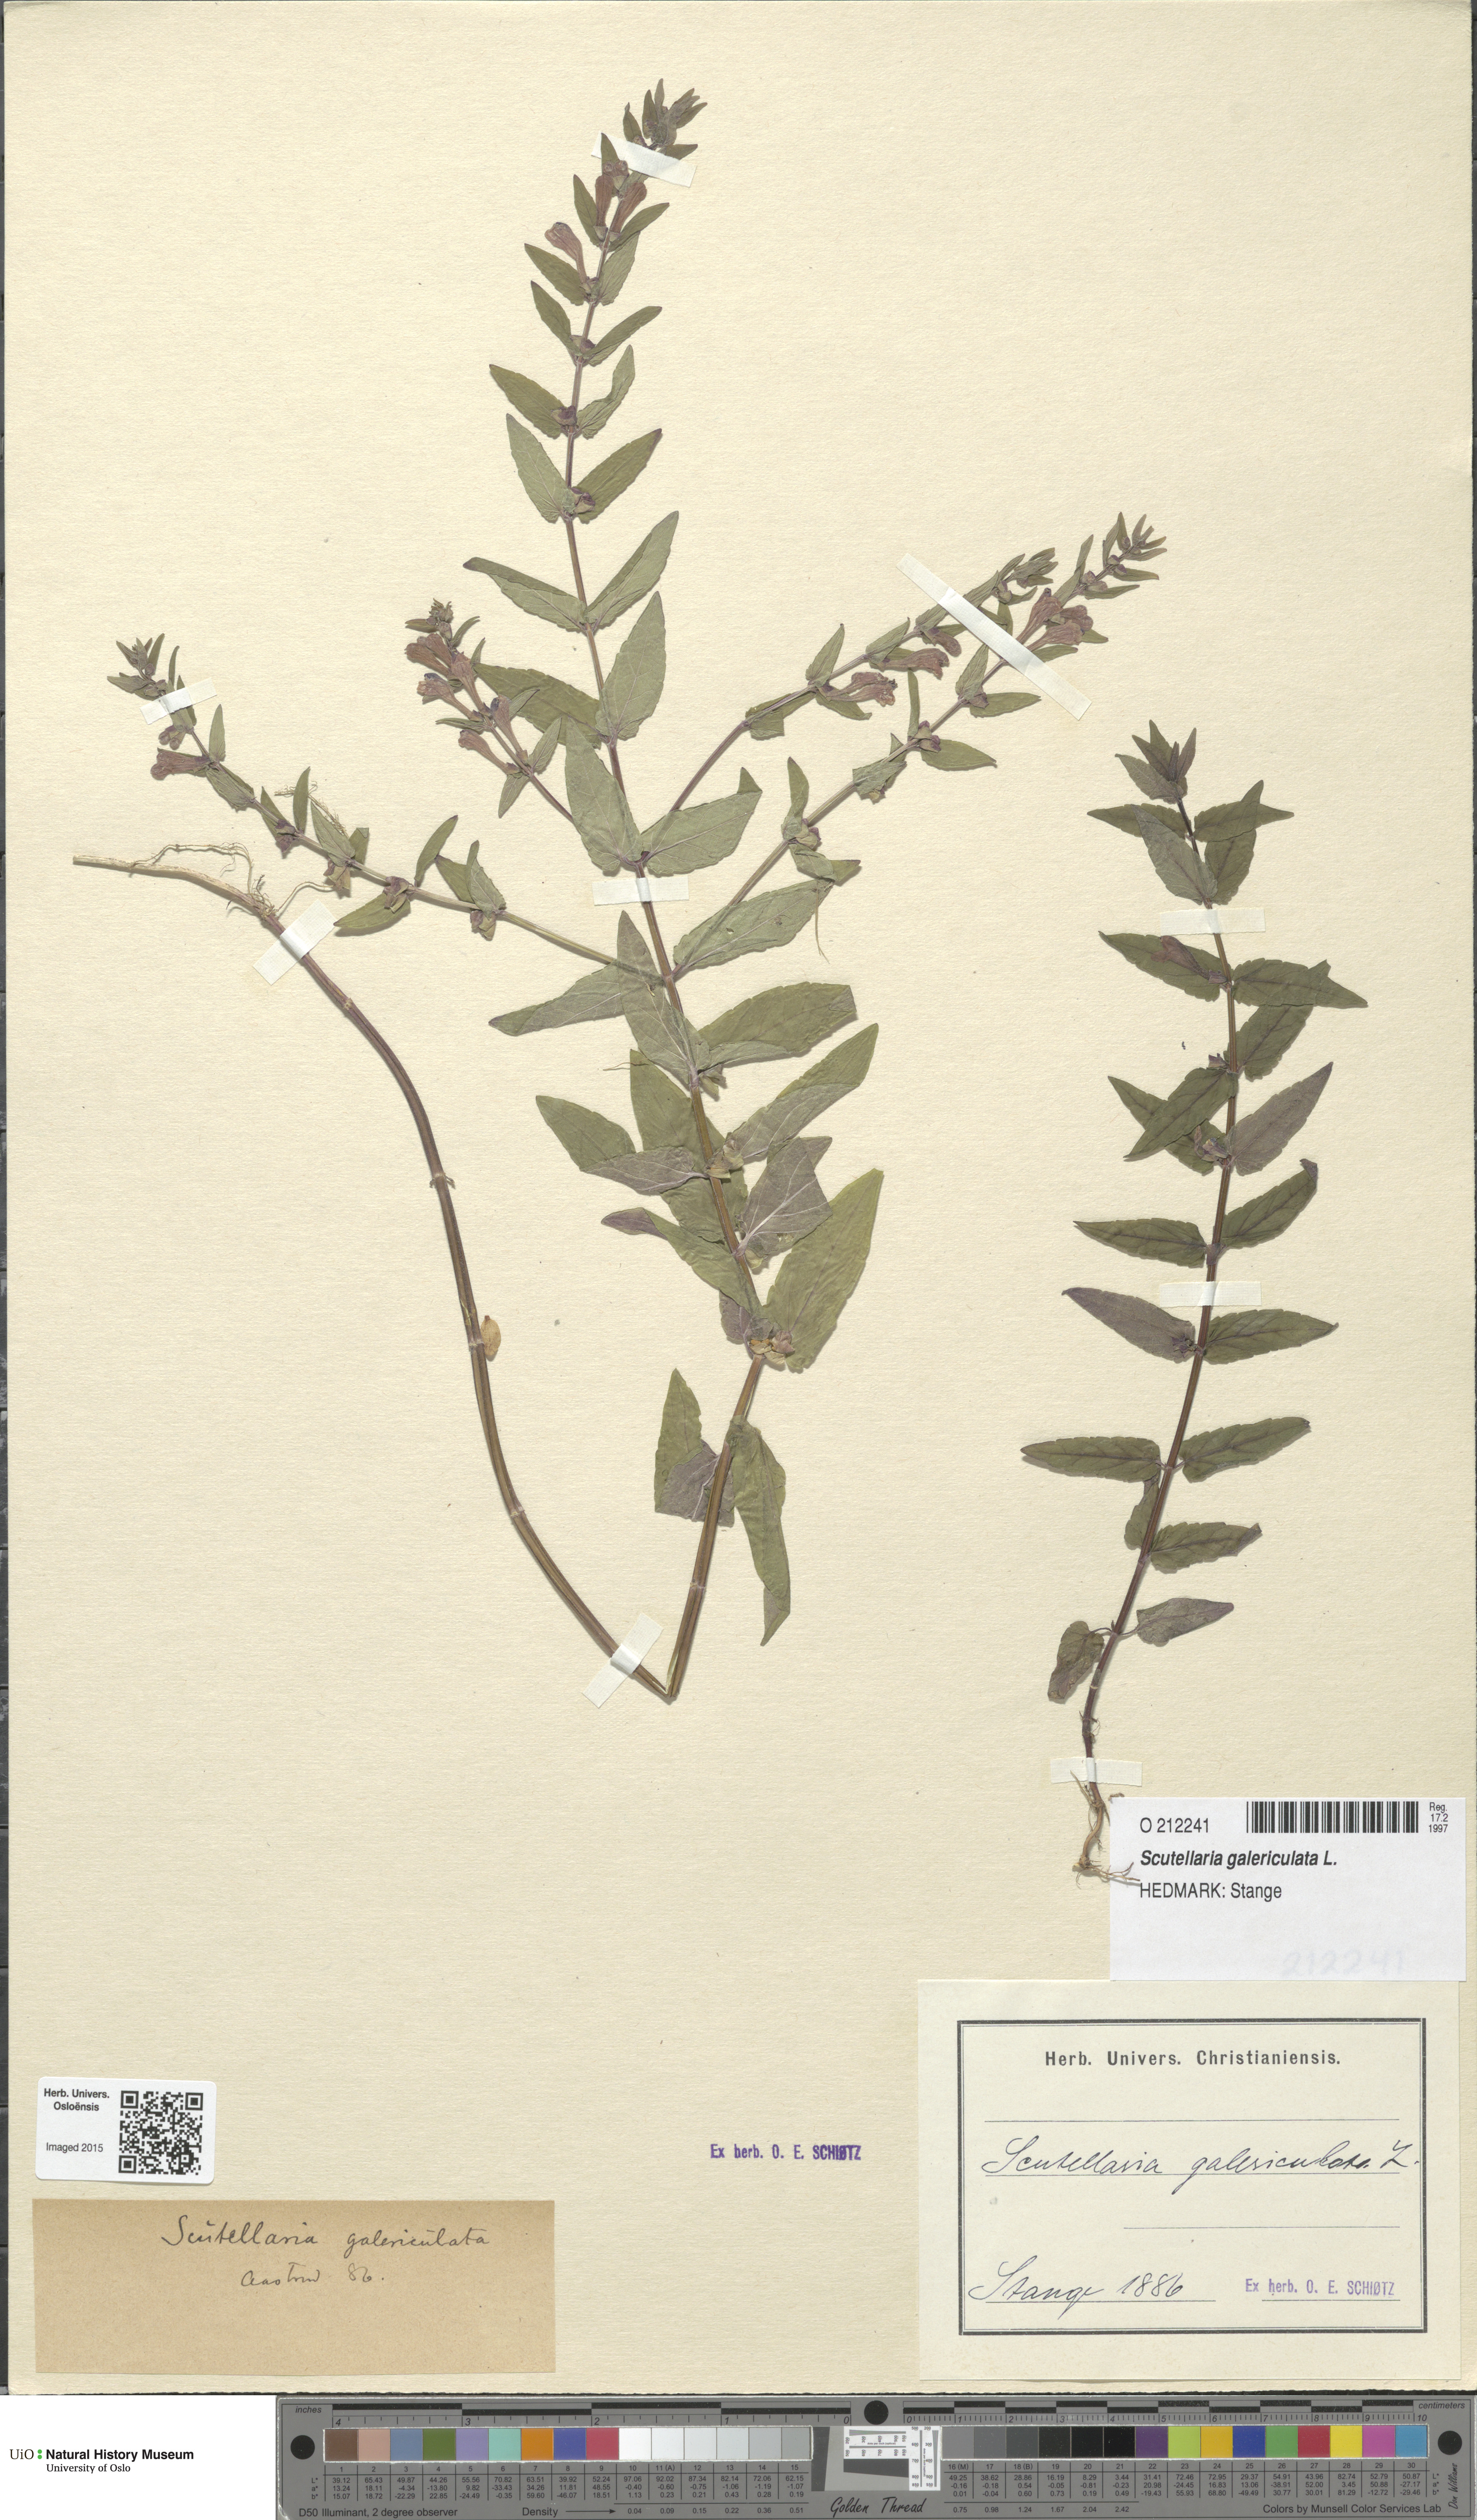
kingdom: Plantae
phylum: Tracheophyta
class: Magnoliopsida
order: Lamiales
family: Lamiaceae
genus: Scutellaria
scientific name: Scutellaria galericulata
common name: Skullcap
